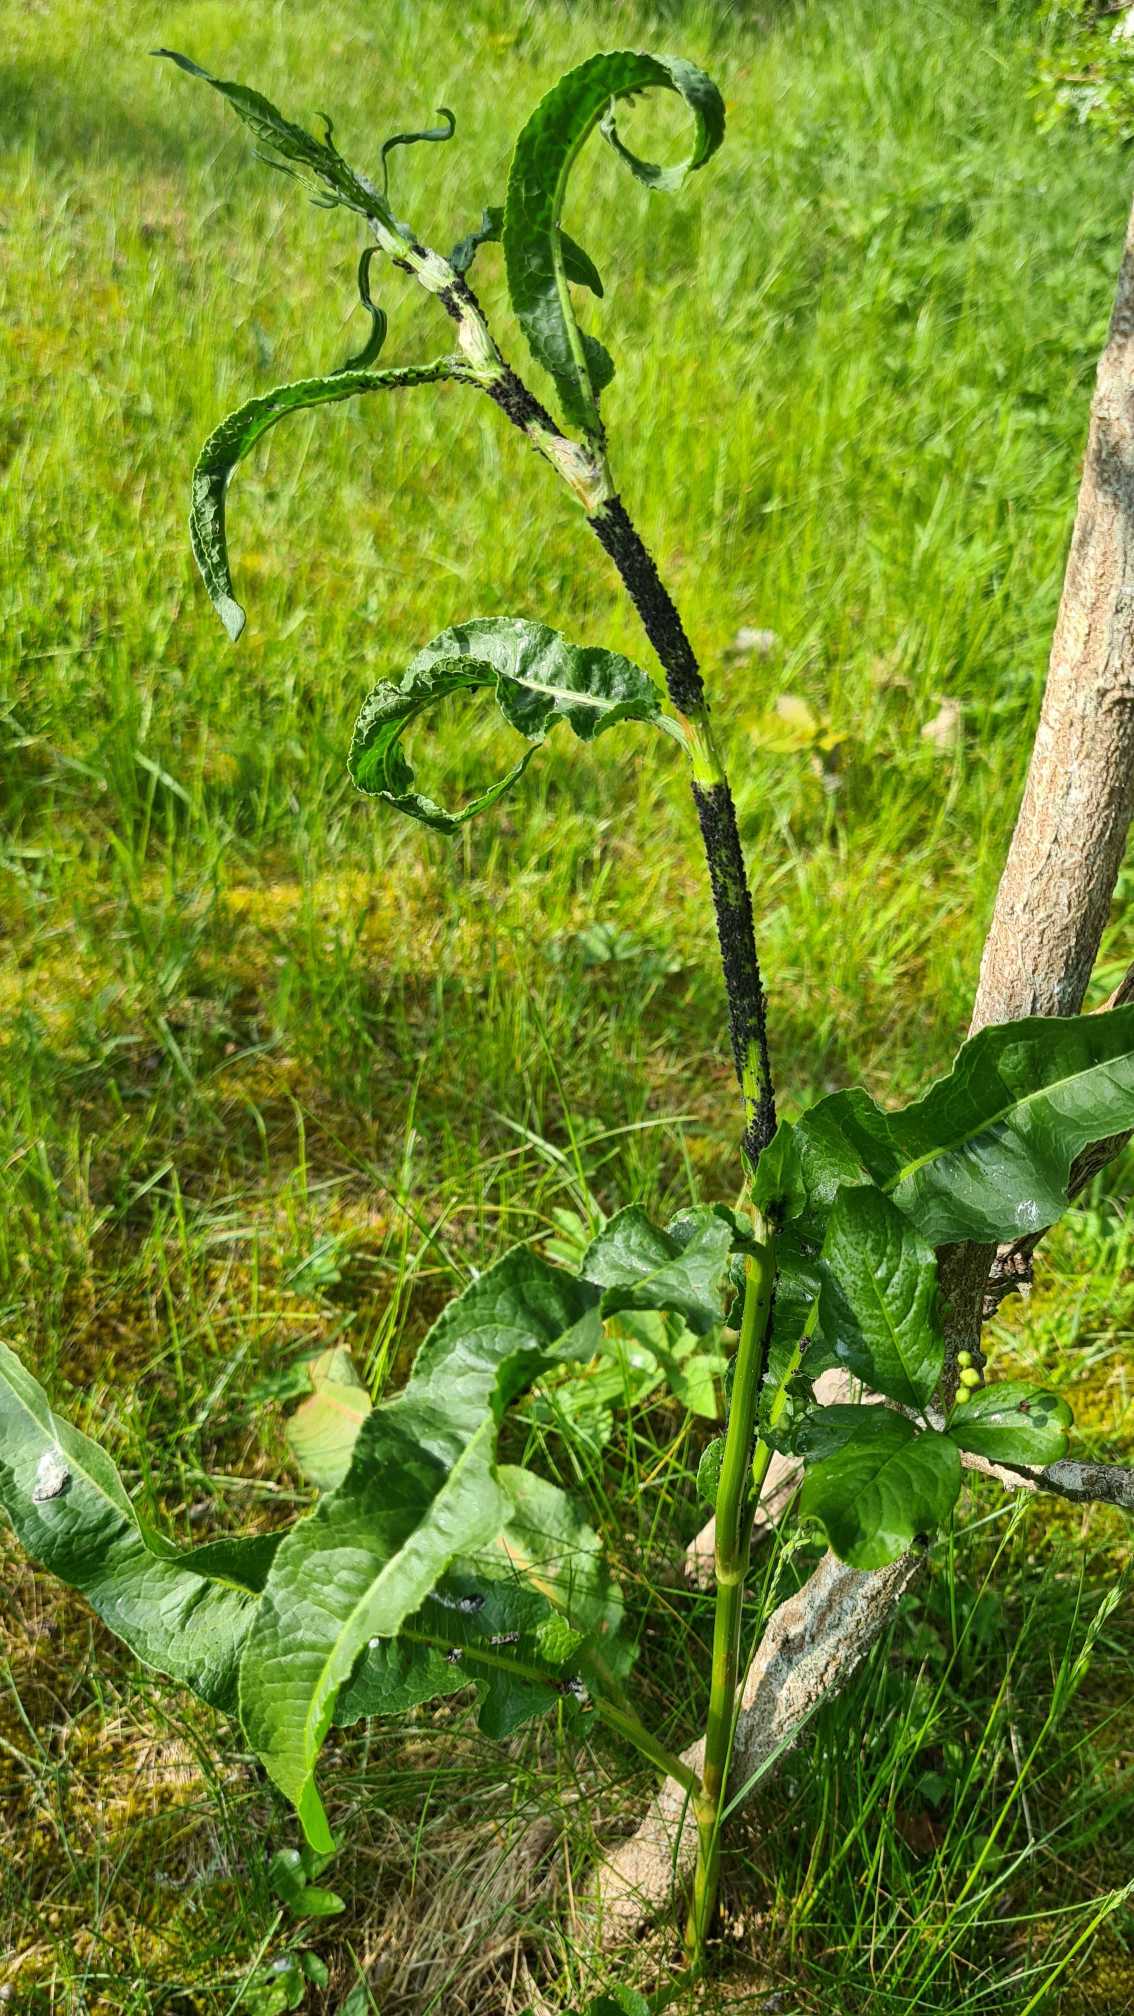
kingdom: Plantae
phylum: Tracheophyta
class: Magnoliopsida
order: Caryophyllales
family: Polygonaceae
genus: Rumex
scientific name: Rumex crispus
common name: Kruset skræppe
